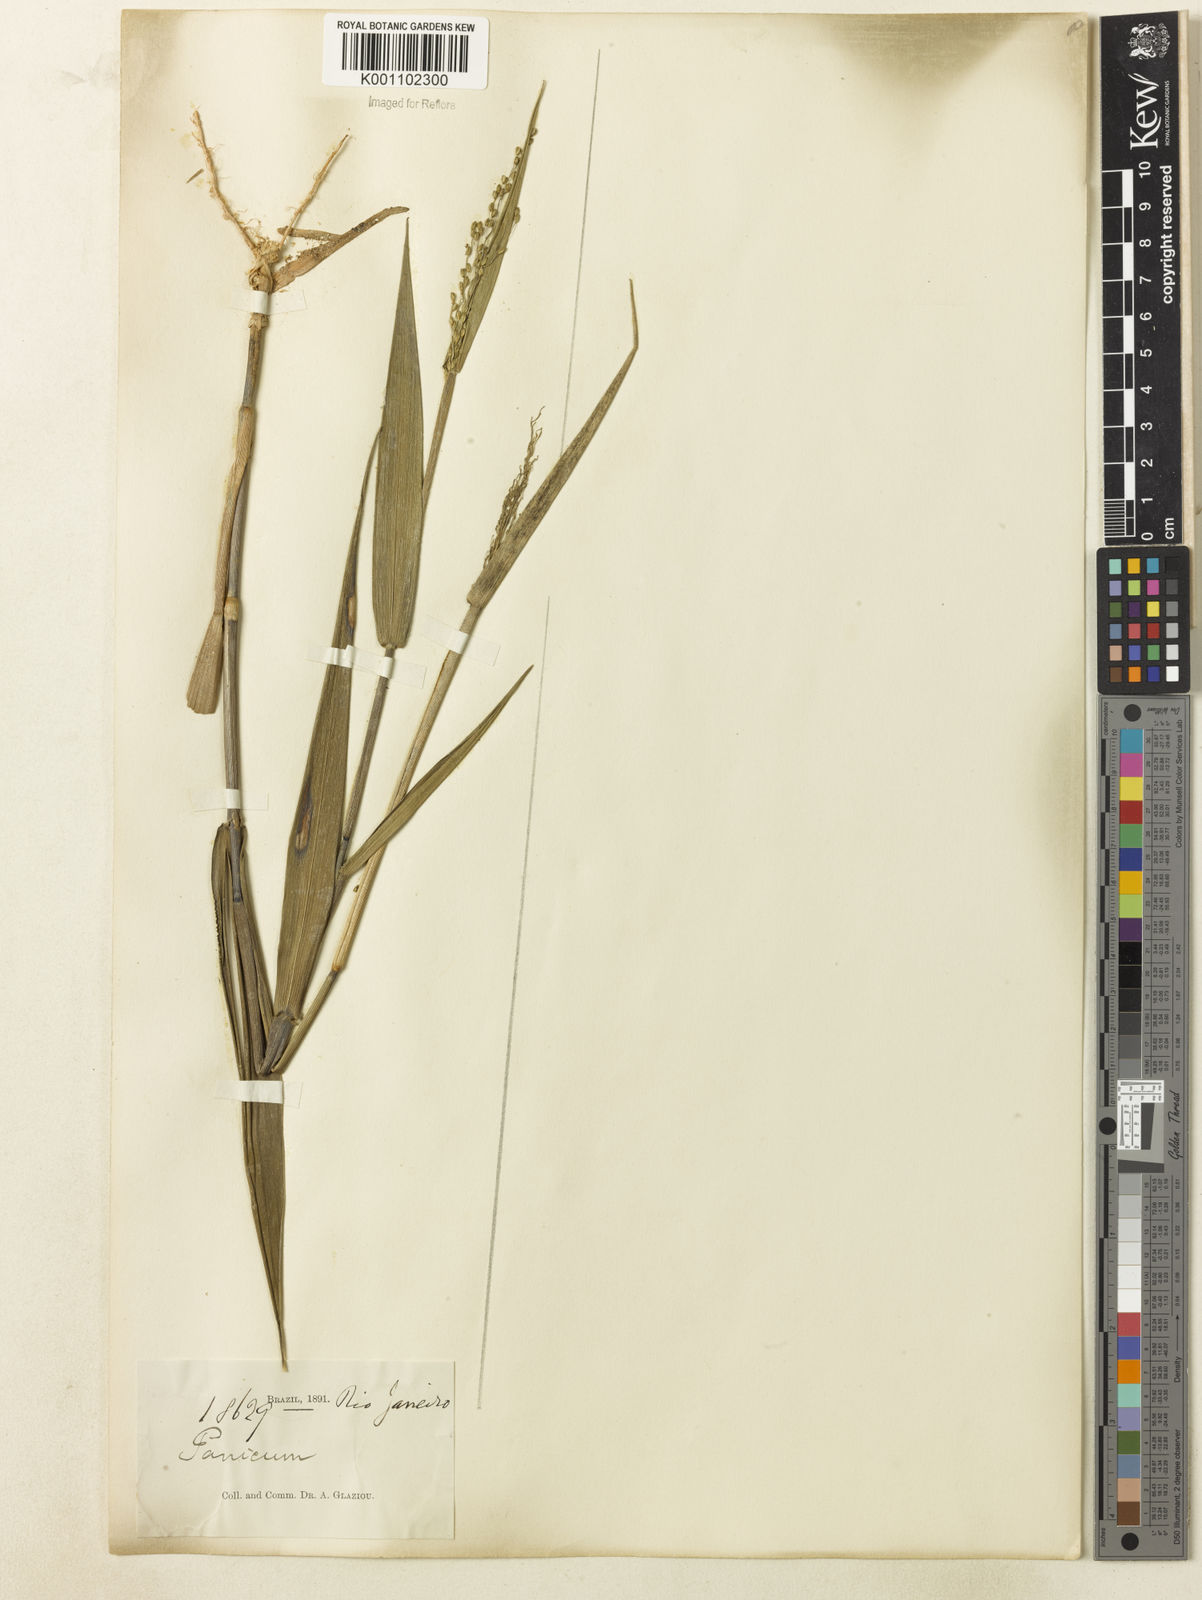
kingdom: Plantae
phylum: Tracheophyta
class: Liliopsida
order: Poales
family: Poaceae
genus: Dichanthelium
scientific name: Dichanthelium stigmosum
